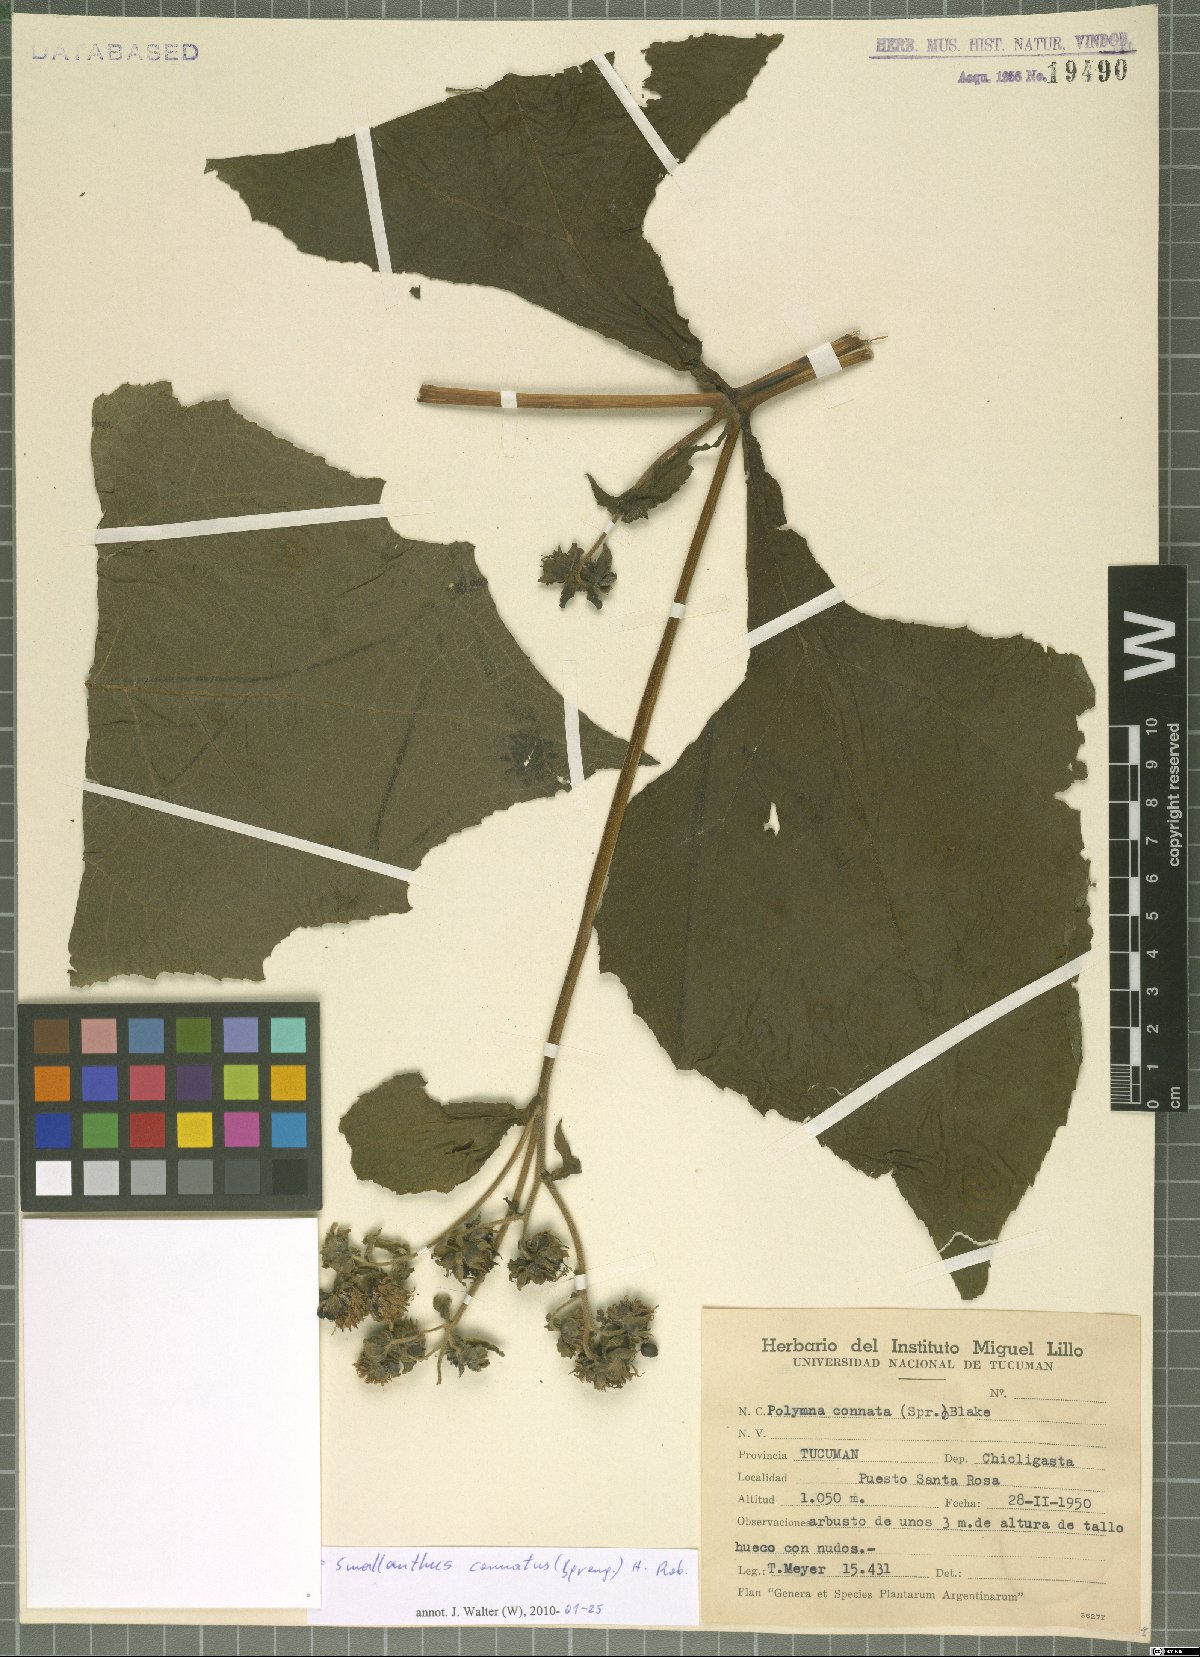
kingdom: Plantae
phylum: Tracheophyta
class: Magnoliopsida
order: Asterales
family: Asteraceae
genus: Smallanthus
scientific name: Smallanthus connatus
